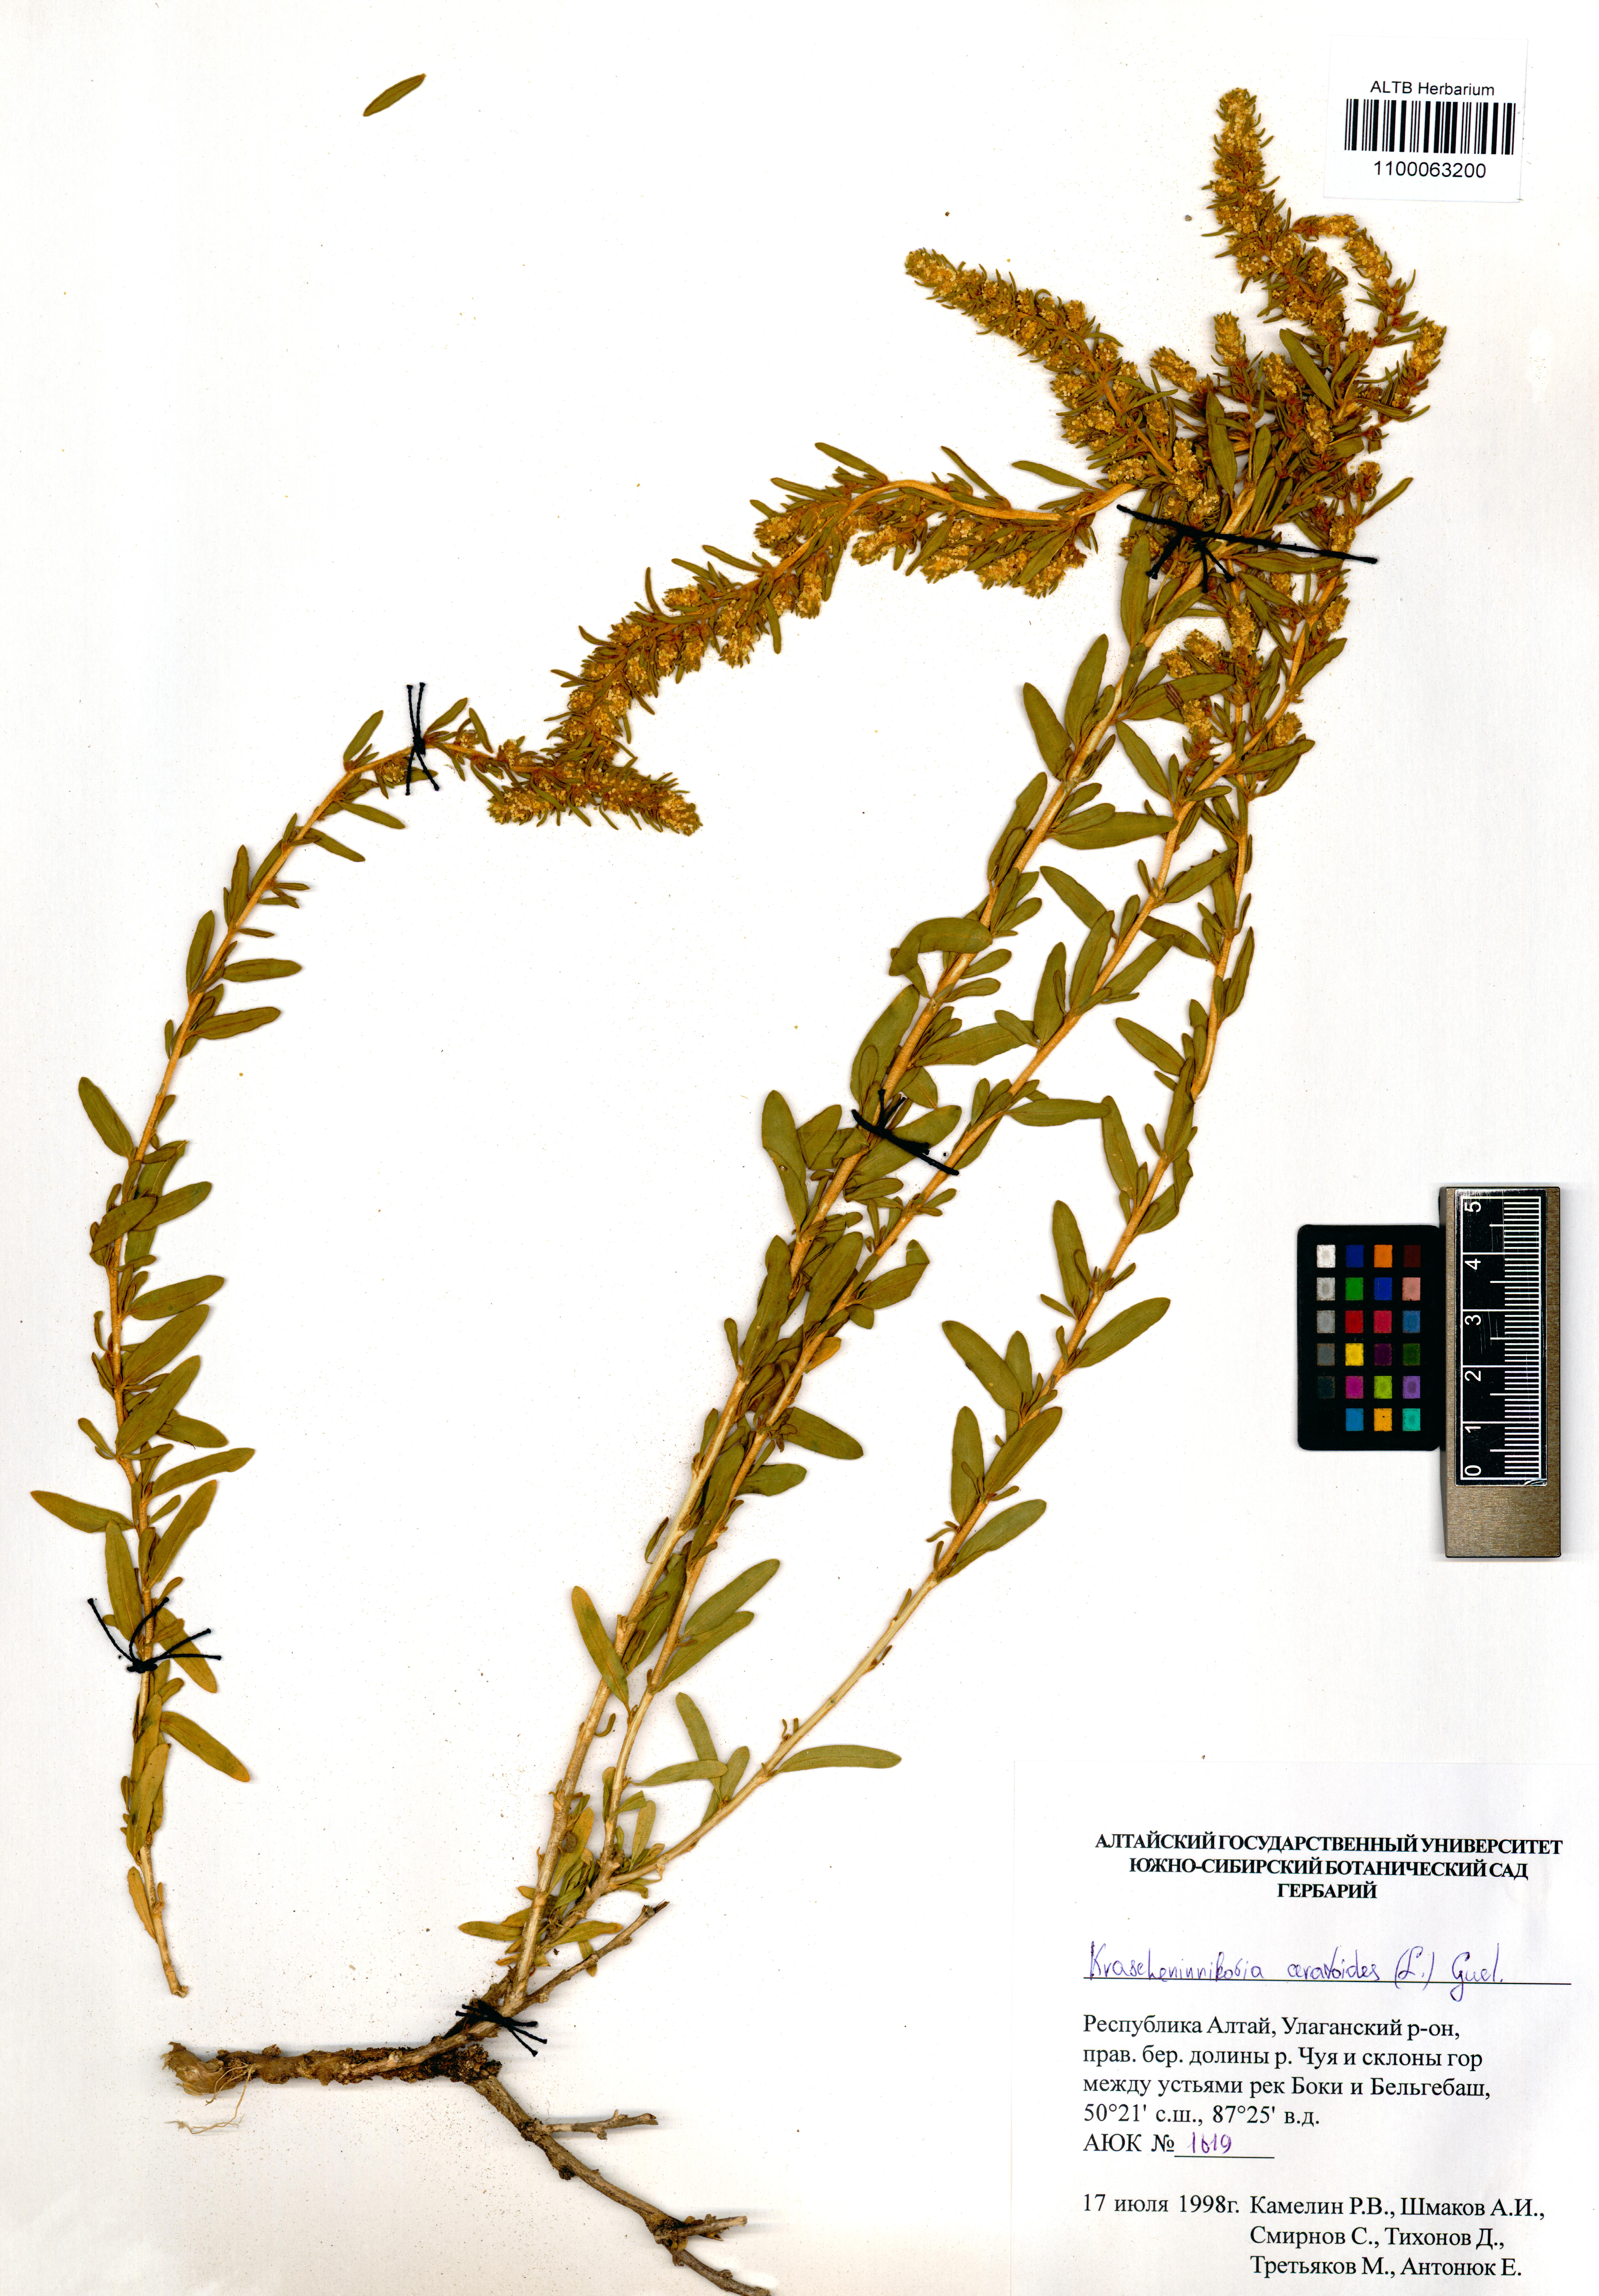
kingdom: Plantae
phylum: Tracheophyta
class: Magnoliopsida
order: Caryophyllales
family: Amaranthaceae
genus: Krascheninnikovia
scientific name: Krascheninnikovia ceratoides
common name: Pamirian winterfat
